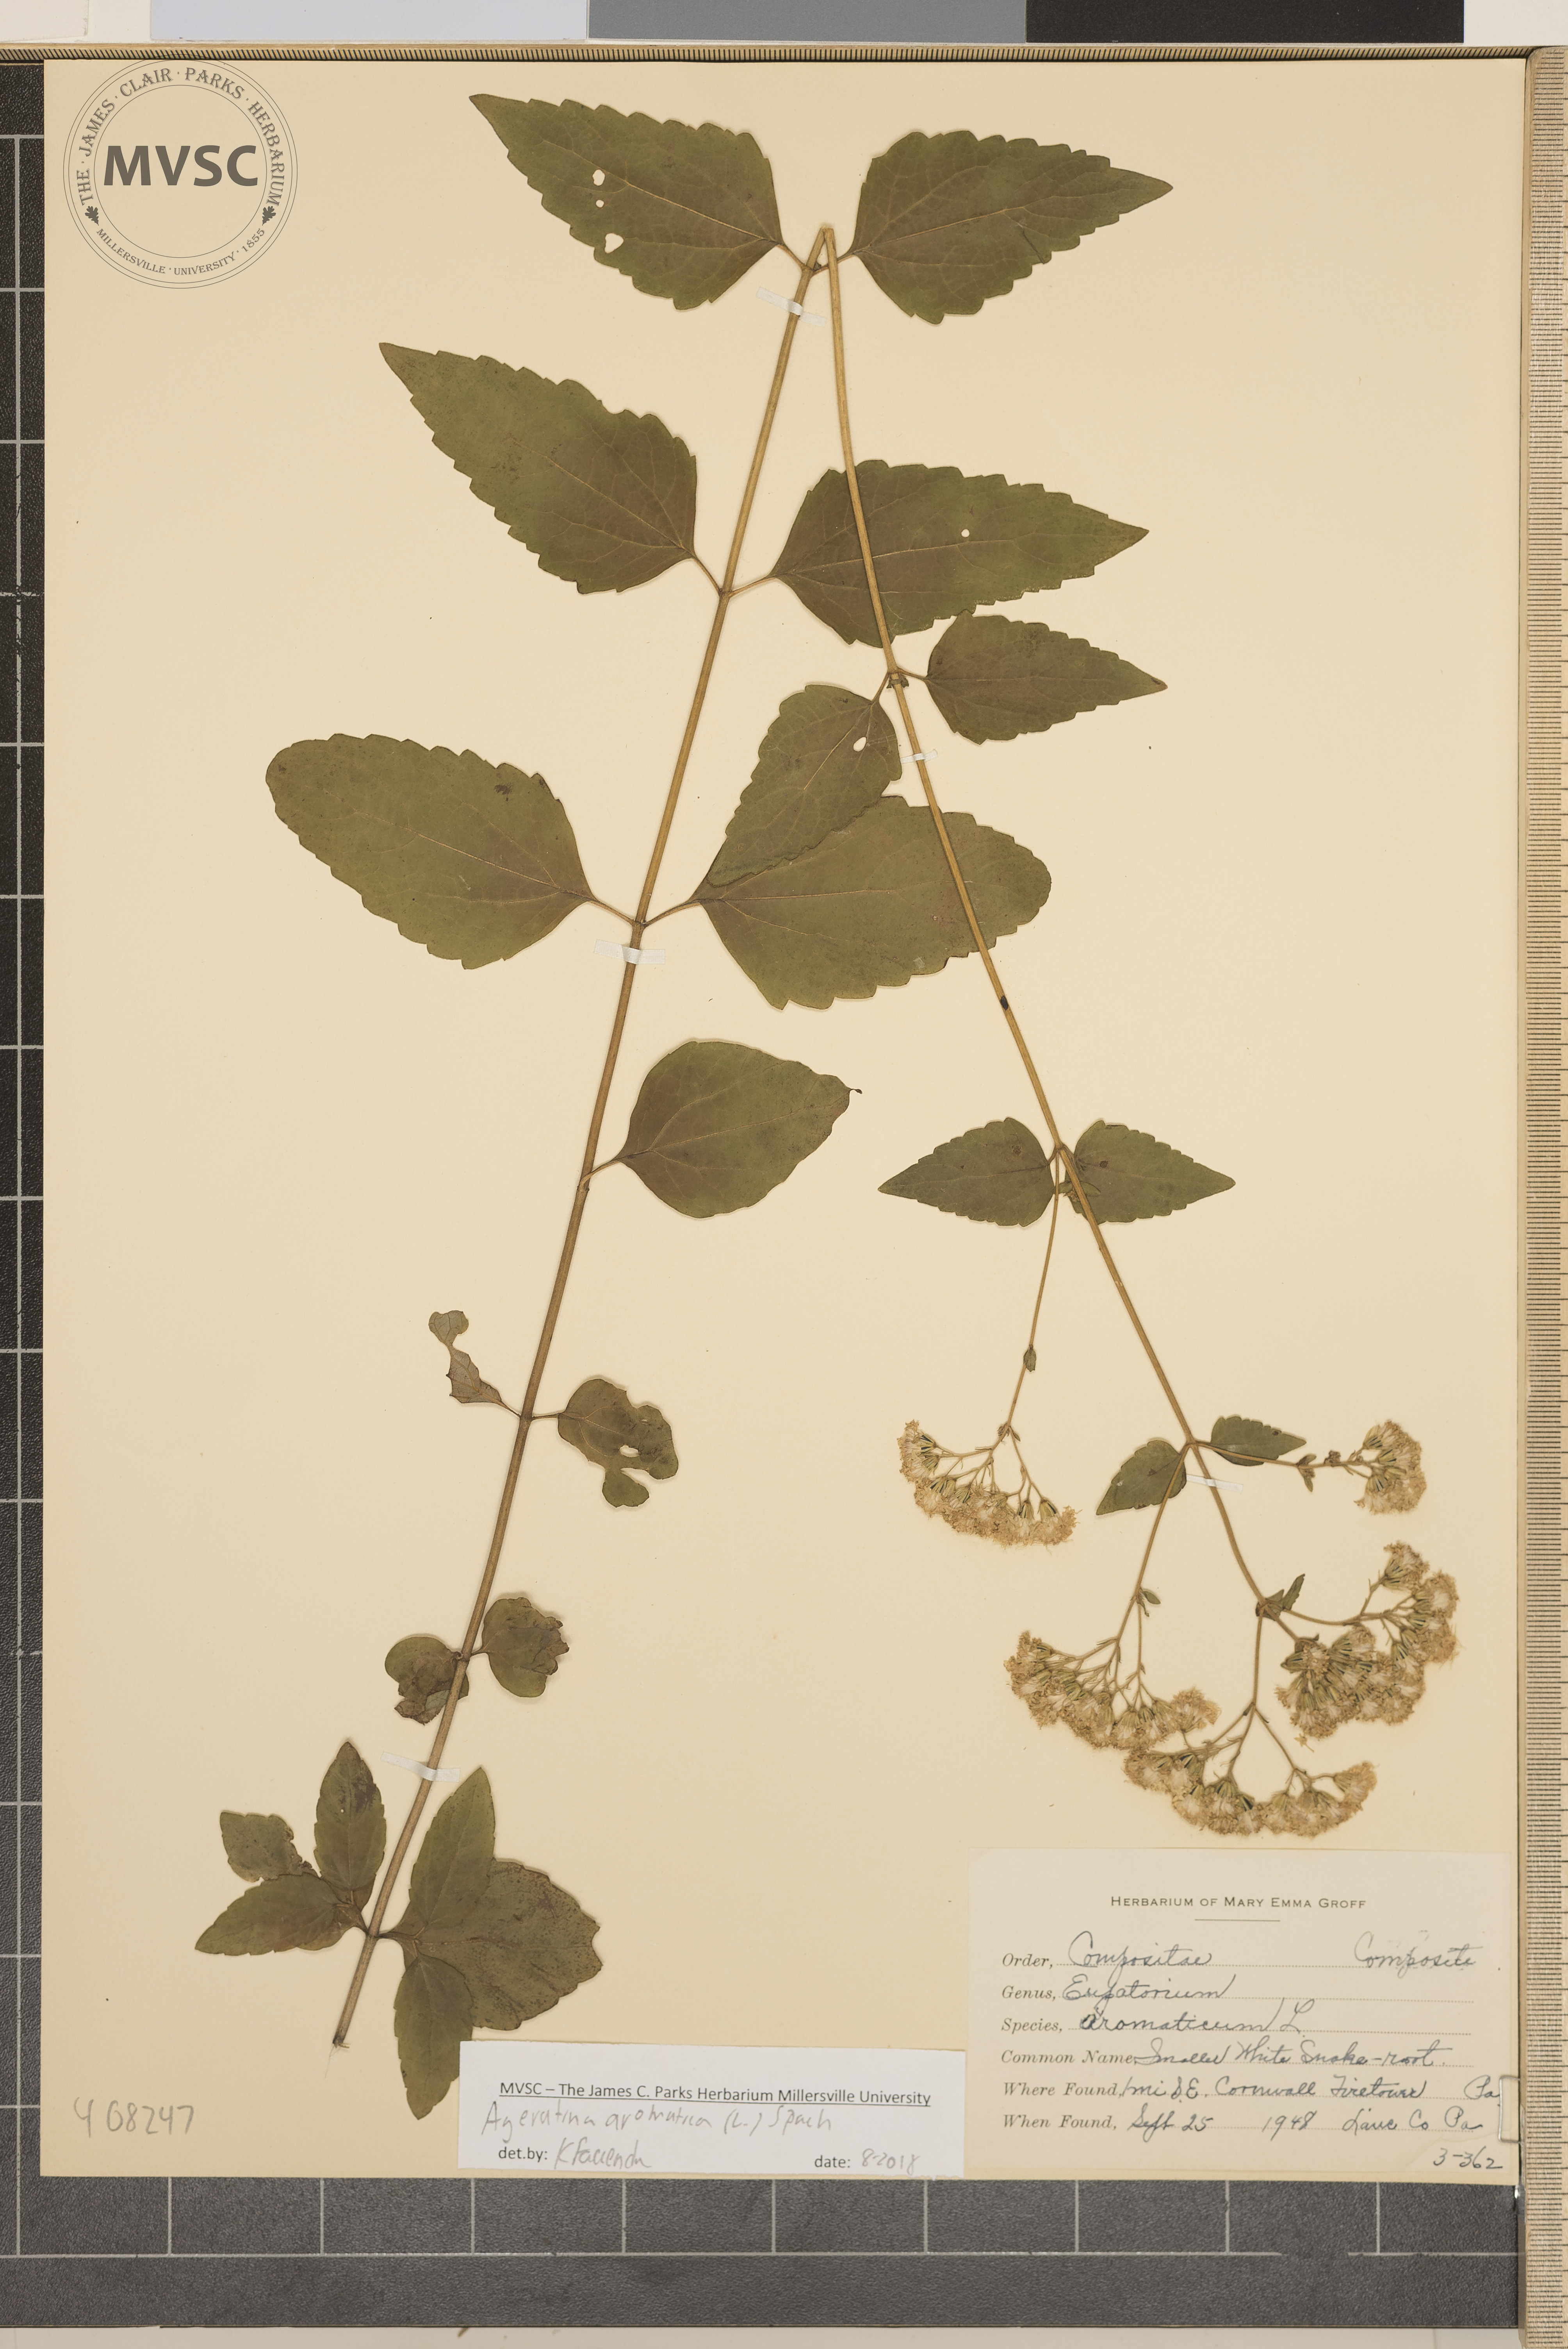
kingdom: Plantae
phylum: Tracheophyta
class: Magnoliopsida
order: Asterales
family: Asteraceae
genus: Ageratina
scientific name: Ageratina aromatica
